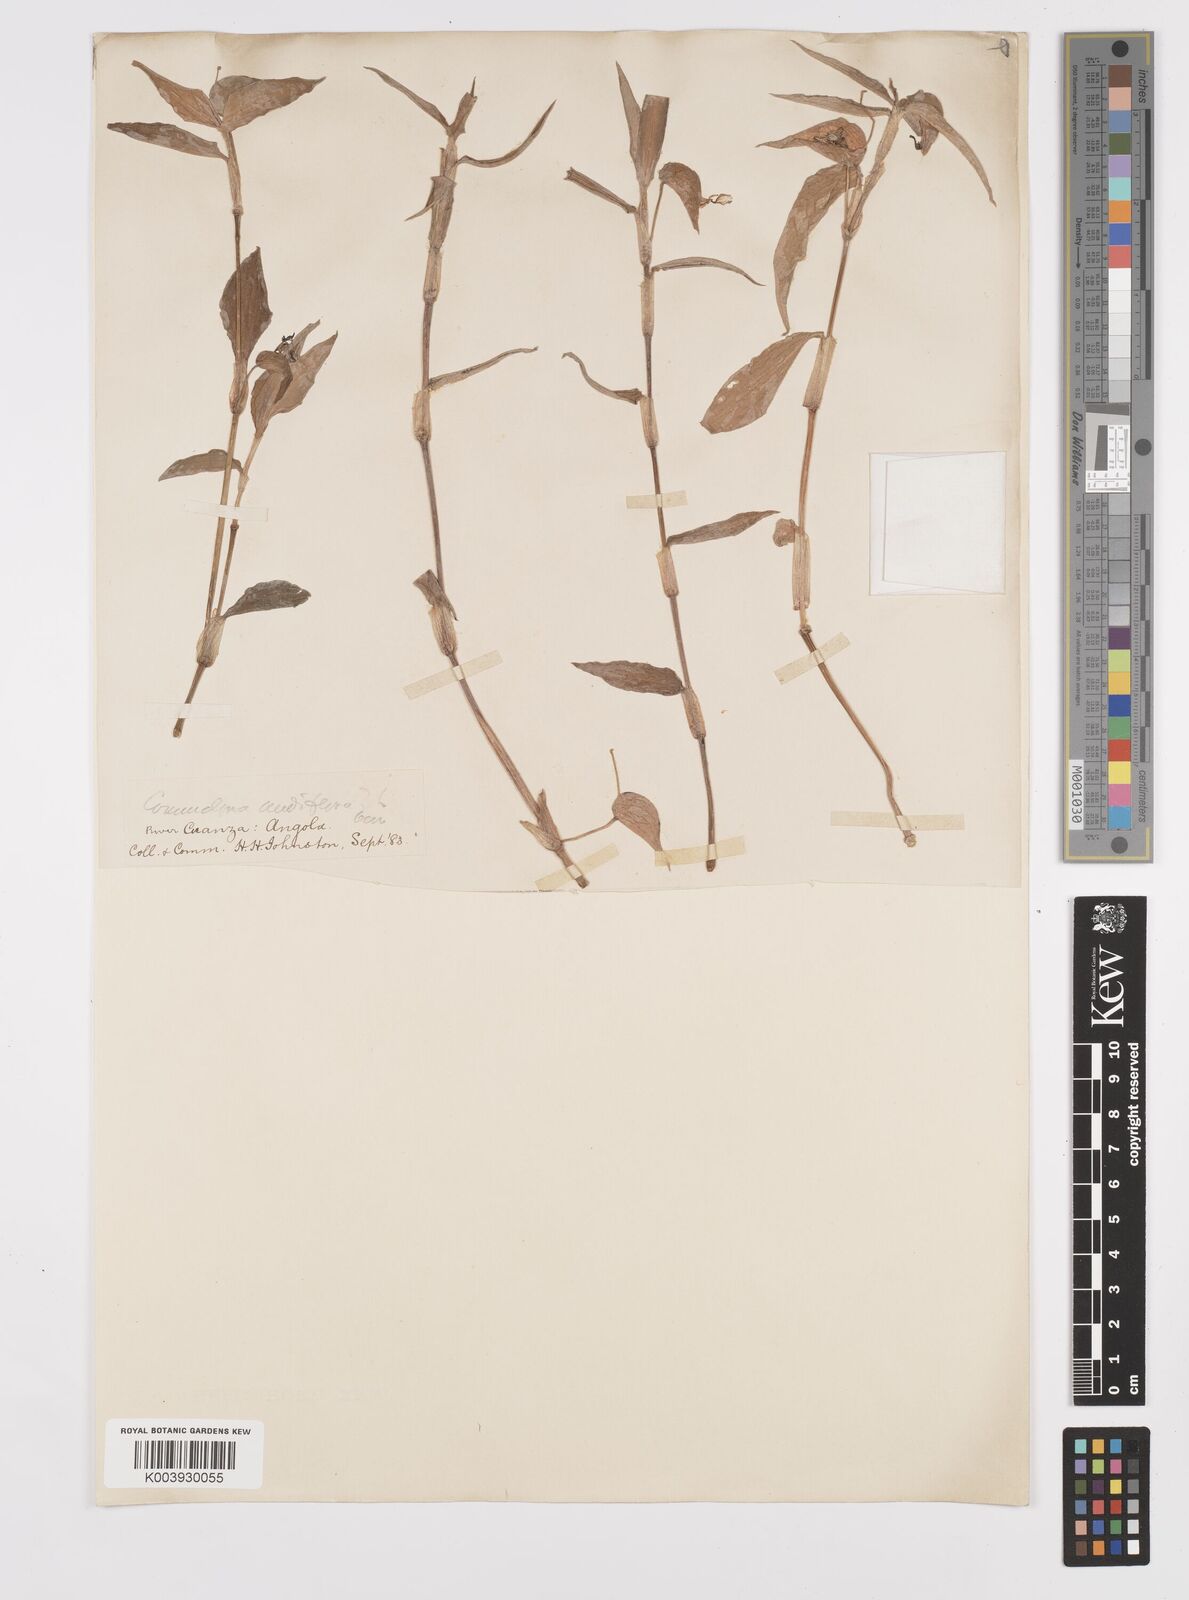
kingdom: Plantae
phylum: Tracheophyta
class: Liliopsida
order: Commelinales
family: Commelinaceae
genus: Commelina
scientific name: Commelina diffusa
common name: Climbing dayflower
